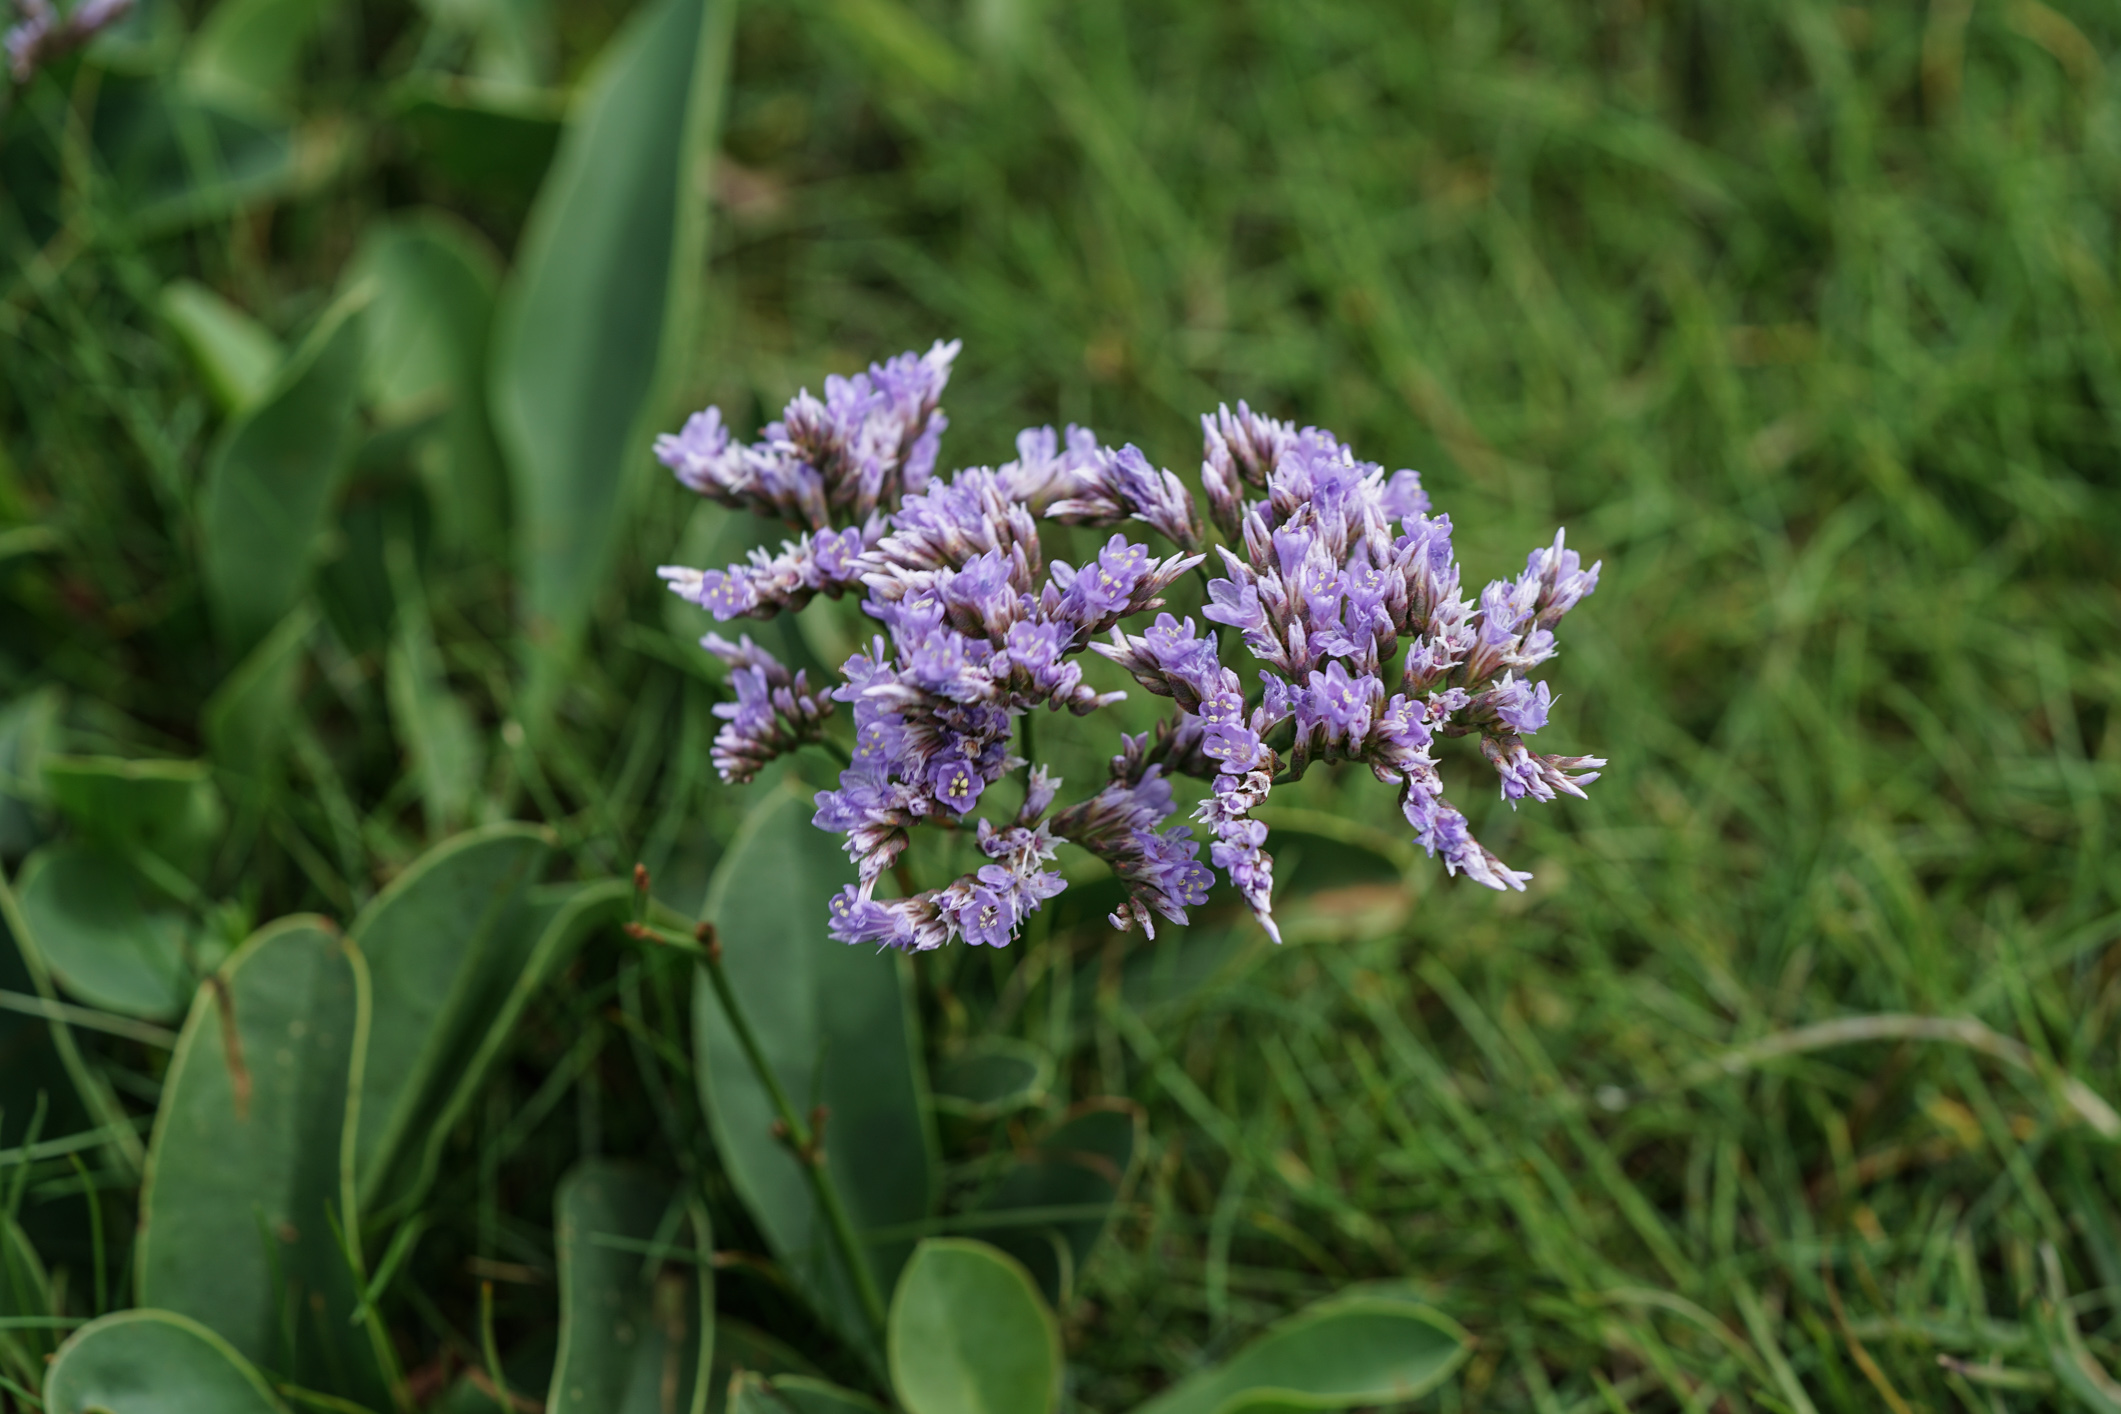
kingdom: Plantae
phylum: Tracheophyta
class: Magnoliopsida
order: Caryophyllales
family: Plumbaginaceae
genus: Limonium
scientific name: Limonium vulgare
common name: Common sea-lavender
